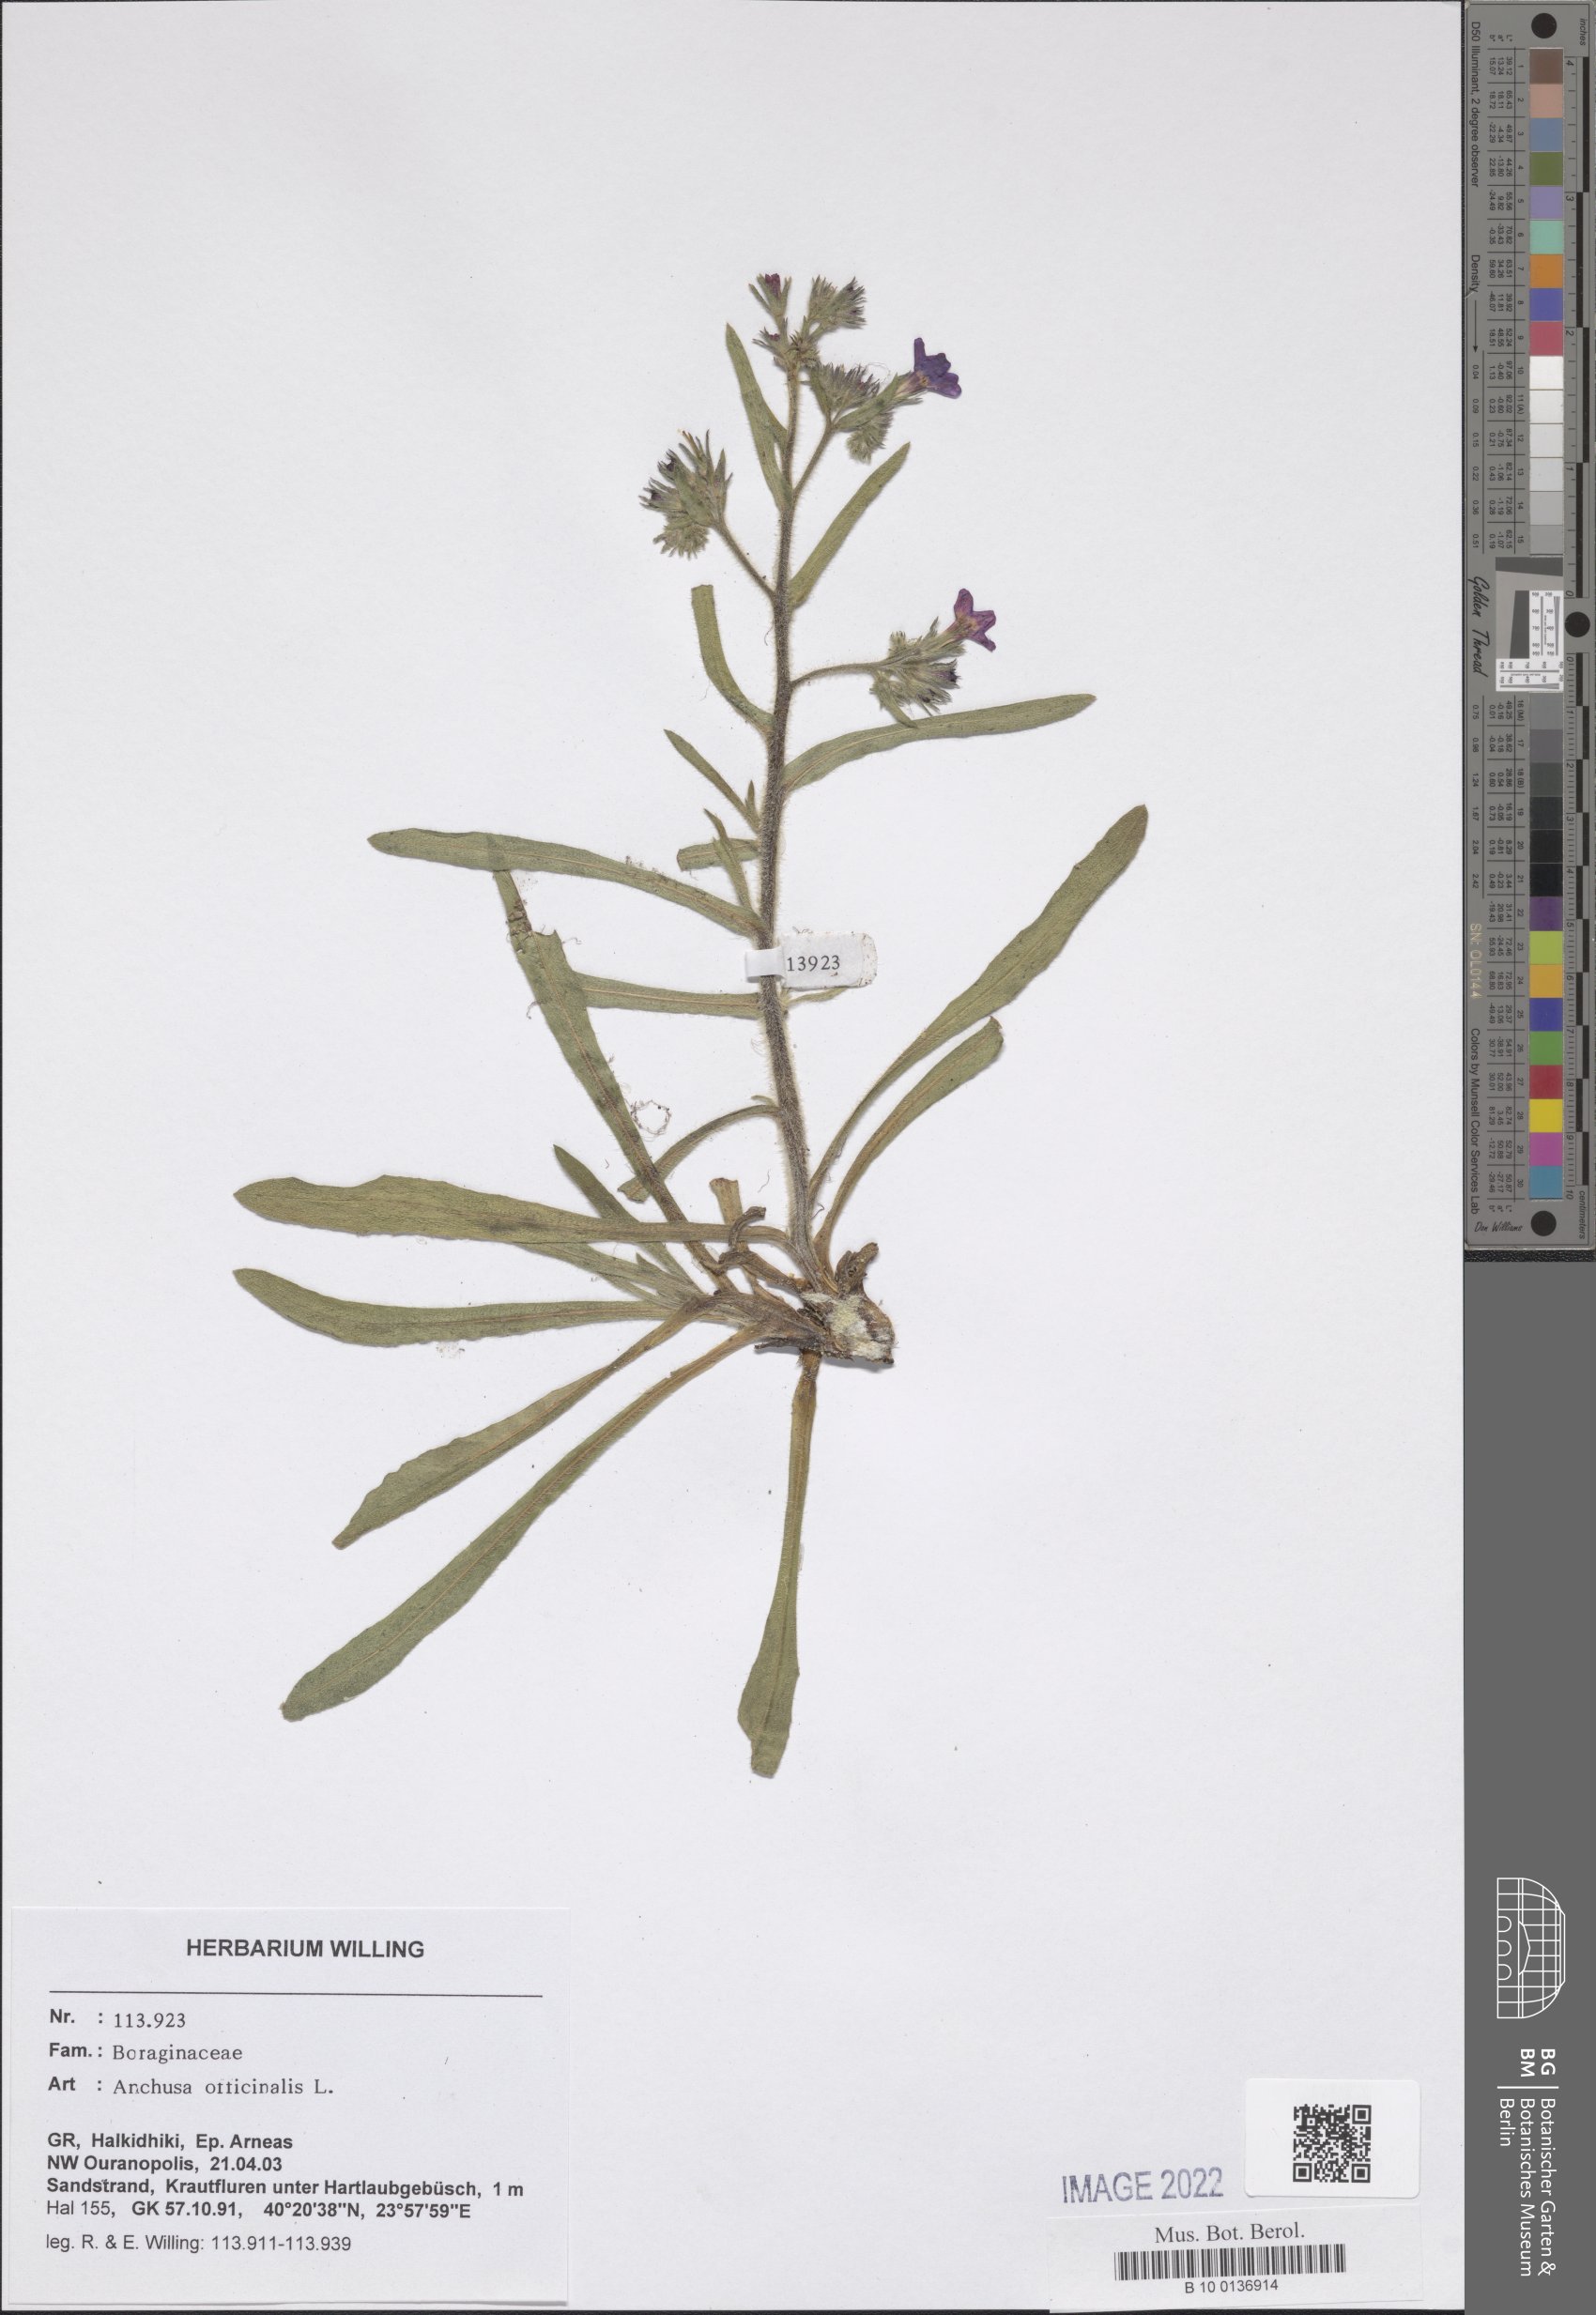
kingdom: Plantae
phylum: Tracheophyta
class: Magnoliopsida
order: Boraginales
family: Boraginaceae
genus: Anchusa
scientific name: Anchusa officinalis
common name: Alkanet
